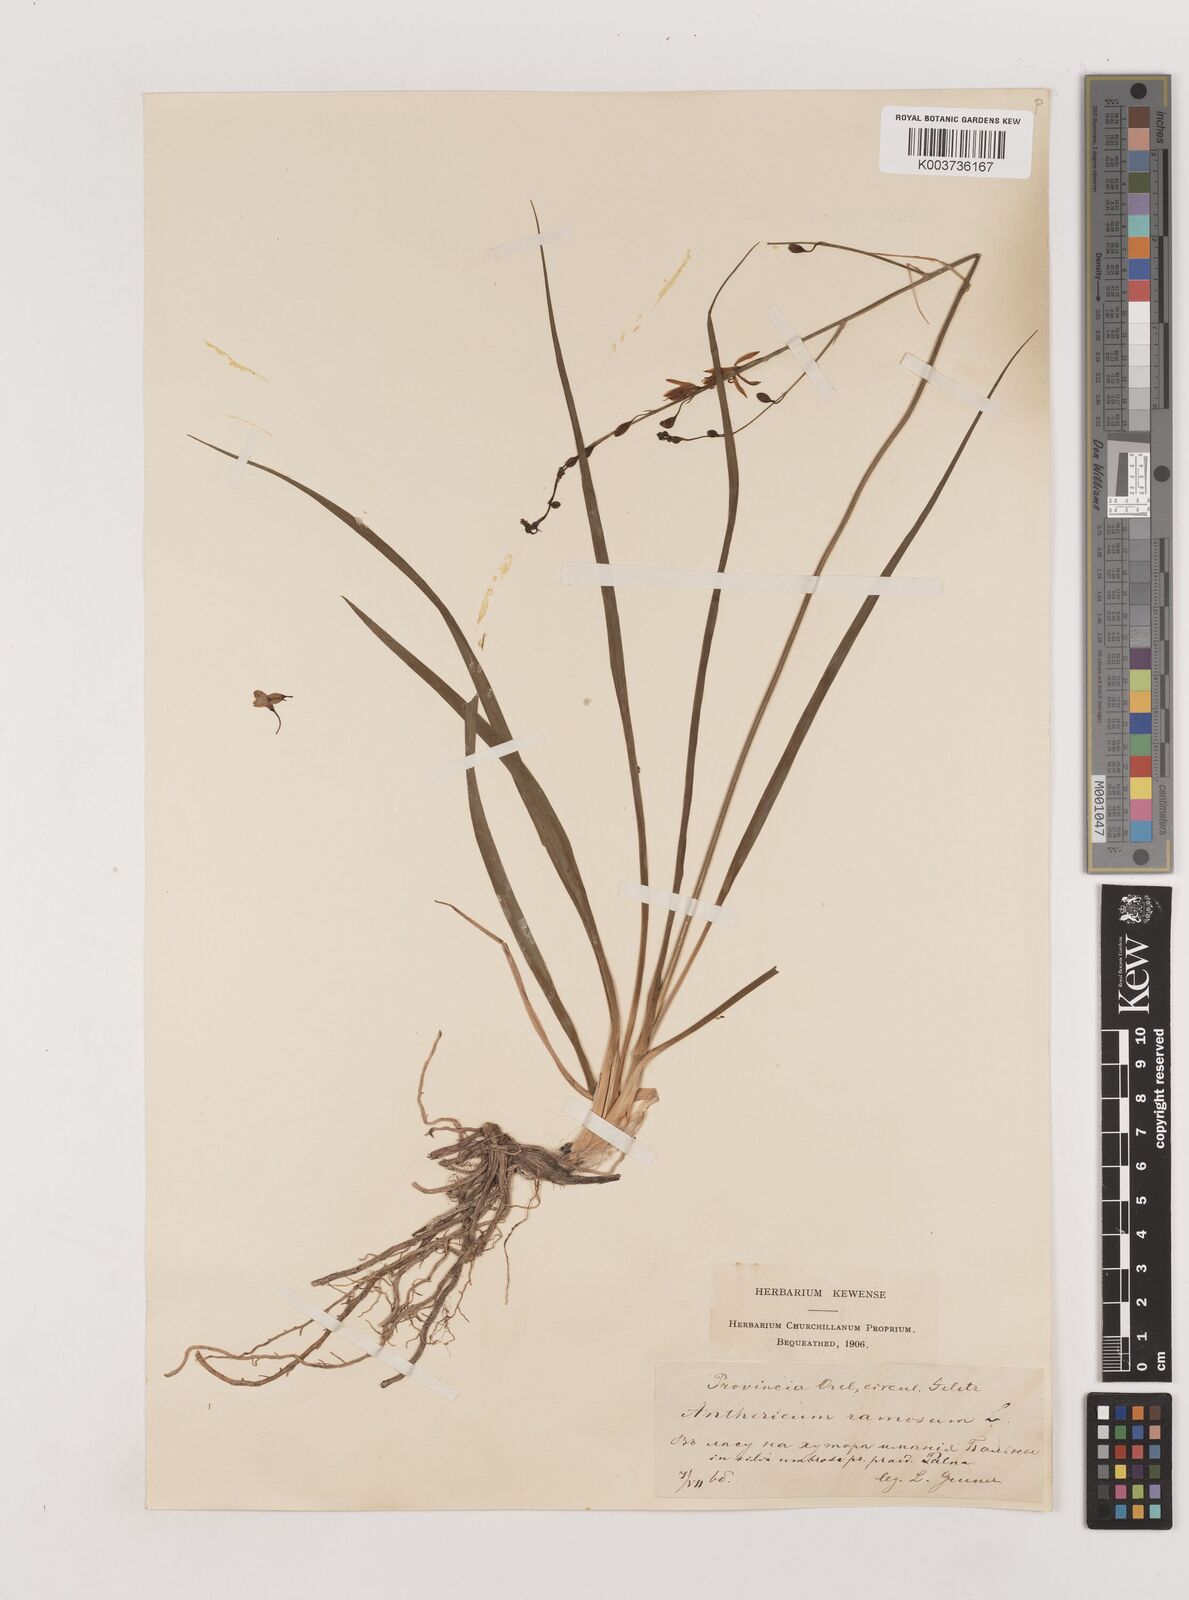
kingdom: Plantae
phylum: Tracheophyta
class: Liliopsida
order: Asparagales
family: Asparagaceae
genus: Anthericum
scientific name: Anthericum ramosum
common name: Branched st. bernard's-lily
